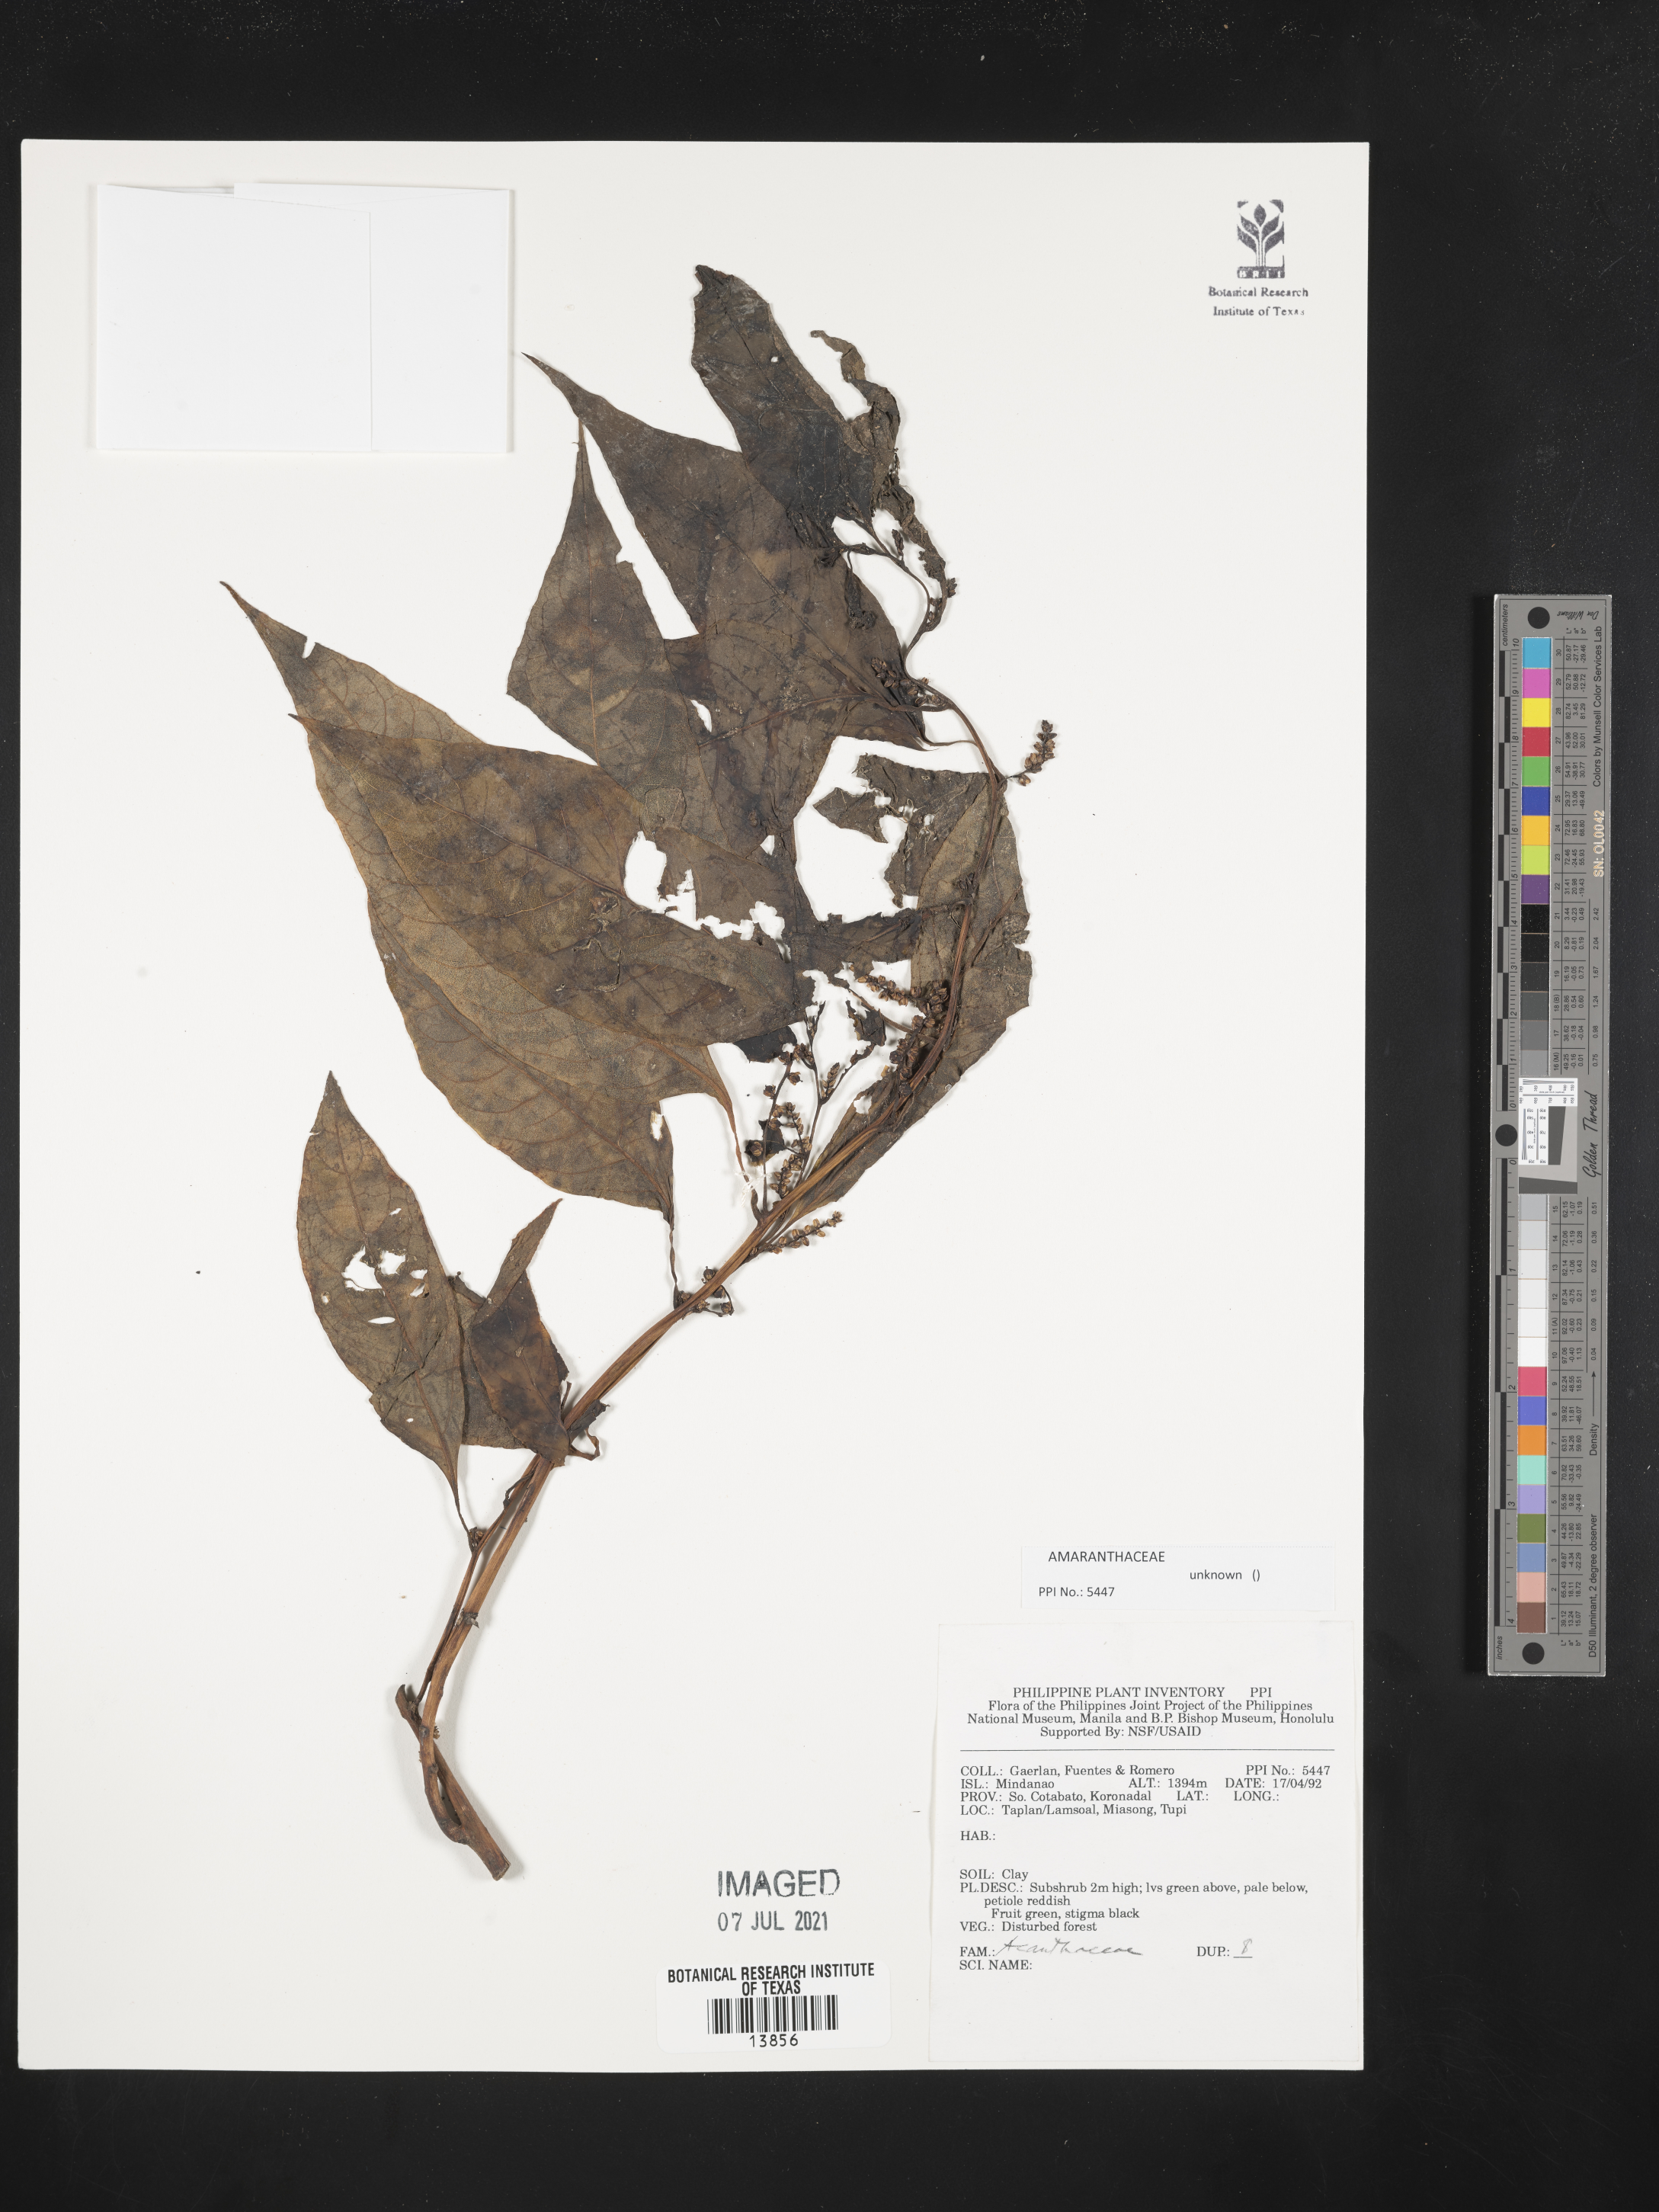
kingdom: Plantae
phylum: Tracheophyta
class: Magnoliopsida
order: Lamiales
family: Acanthaceae
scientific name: Acanthaceae
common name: Acanthaceae
